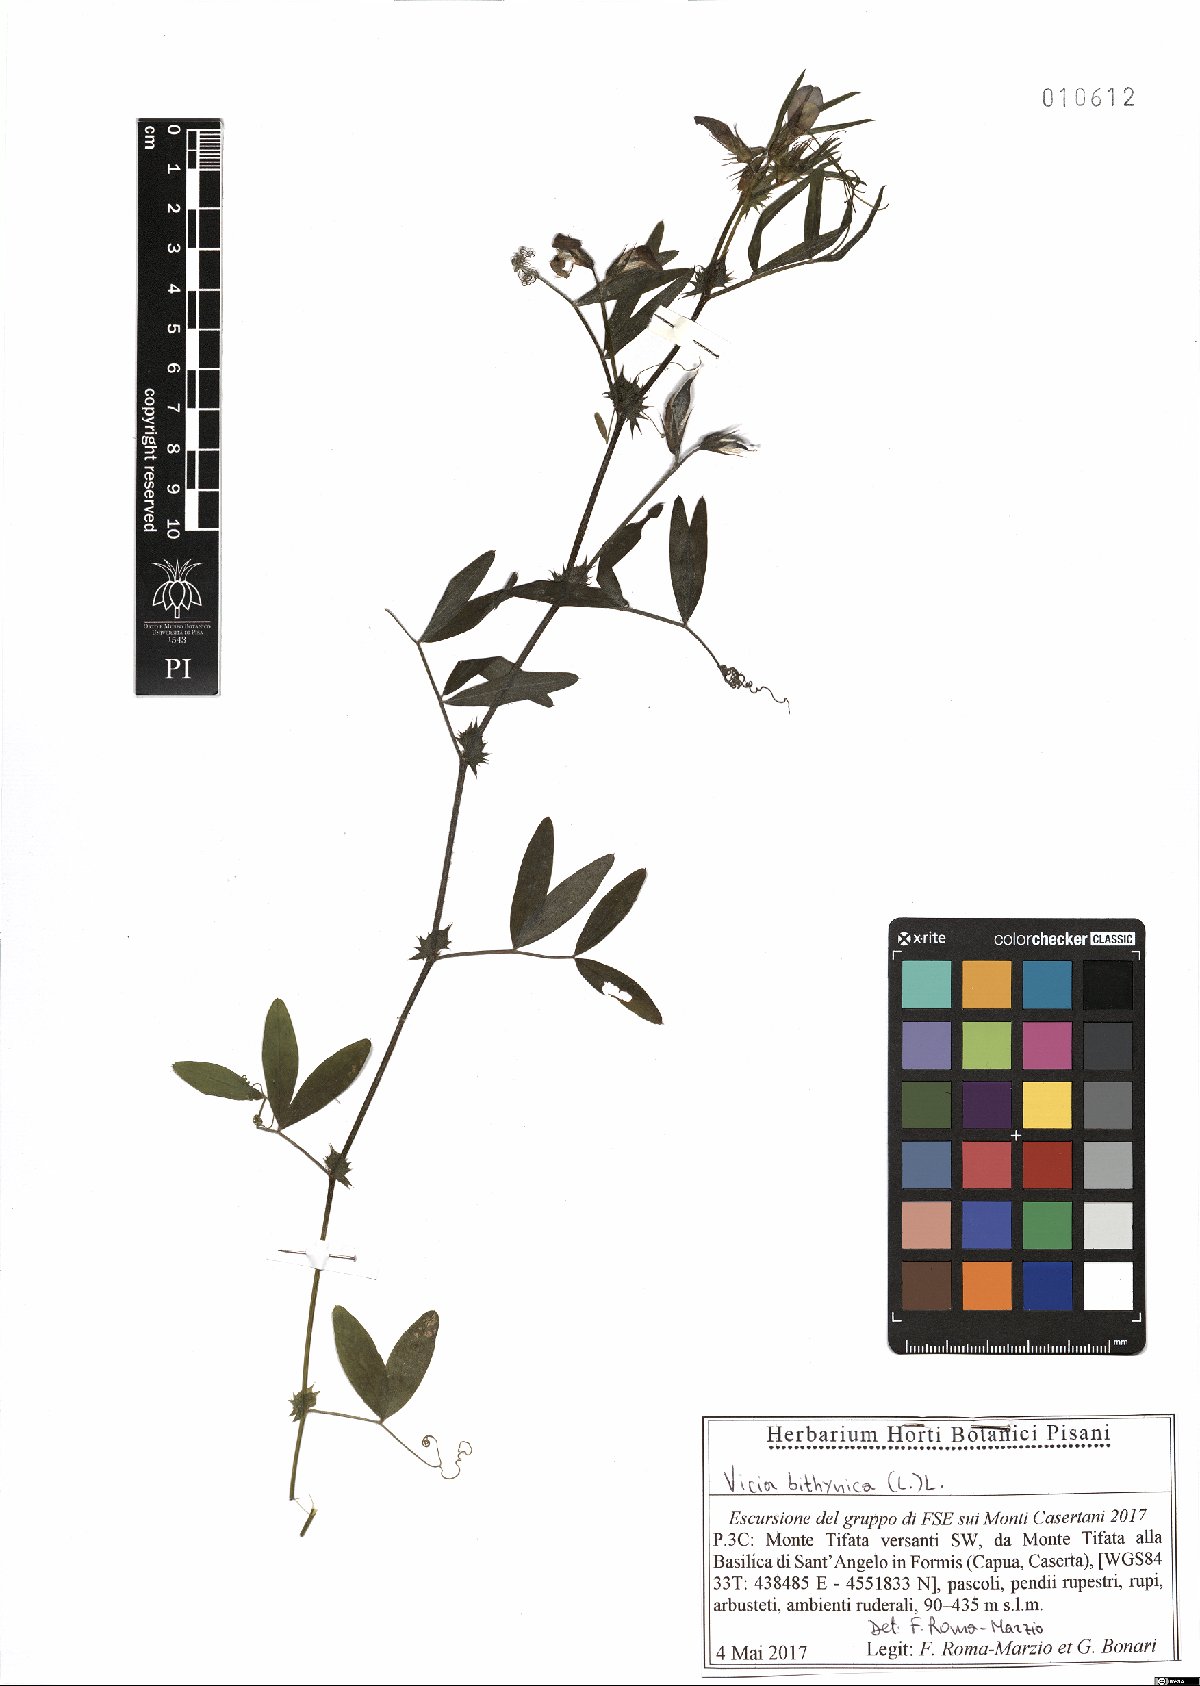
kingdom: Plantae
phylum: Tracheophyta
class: Magnoliopsida
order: Fabales
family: Fabaceae
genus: Vicia
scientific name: Vicia bithynica
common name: Bithynian vetch
